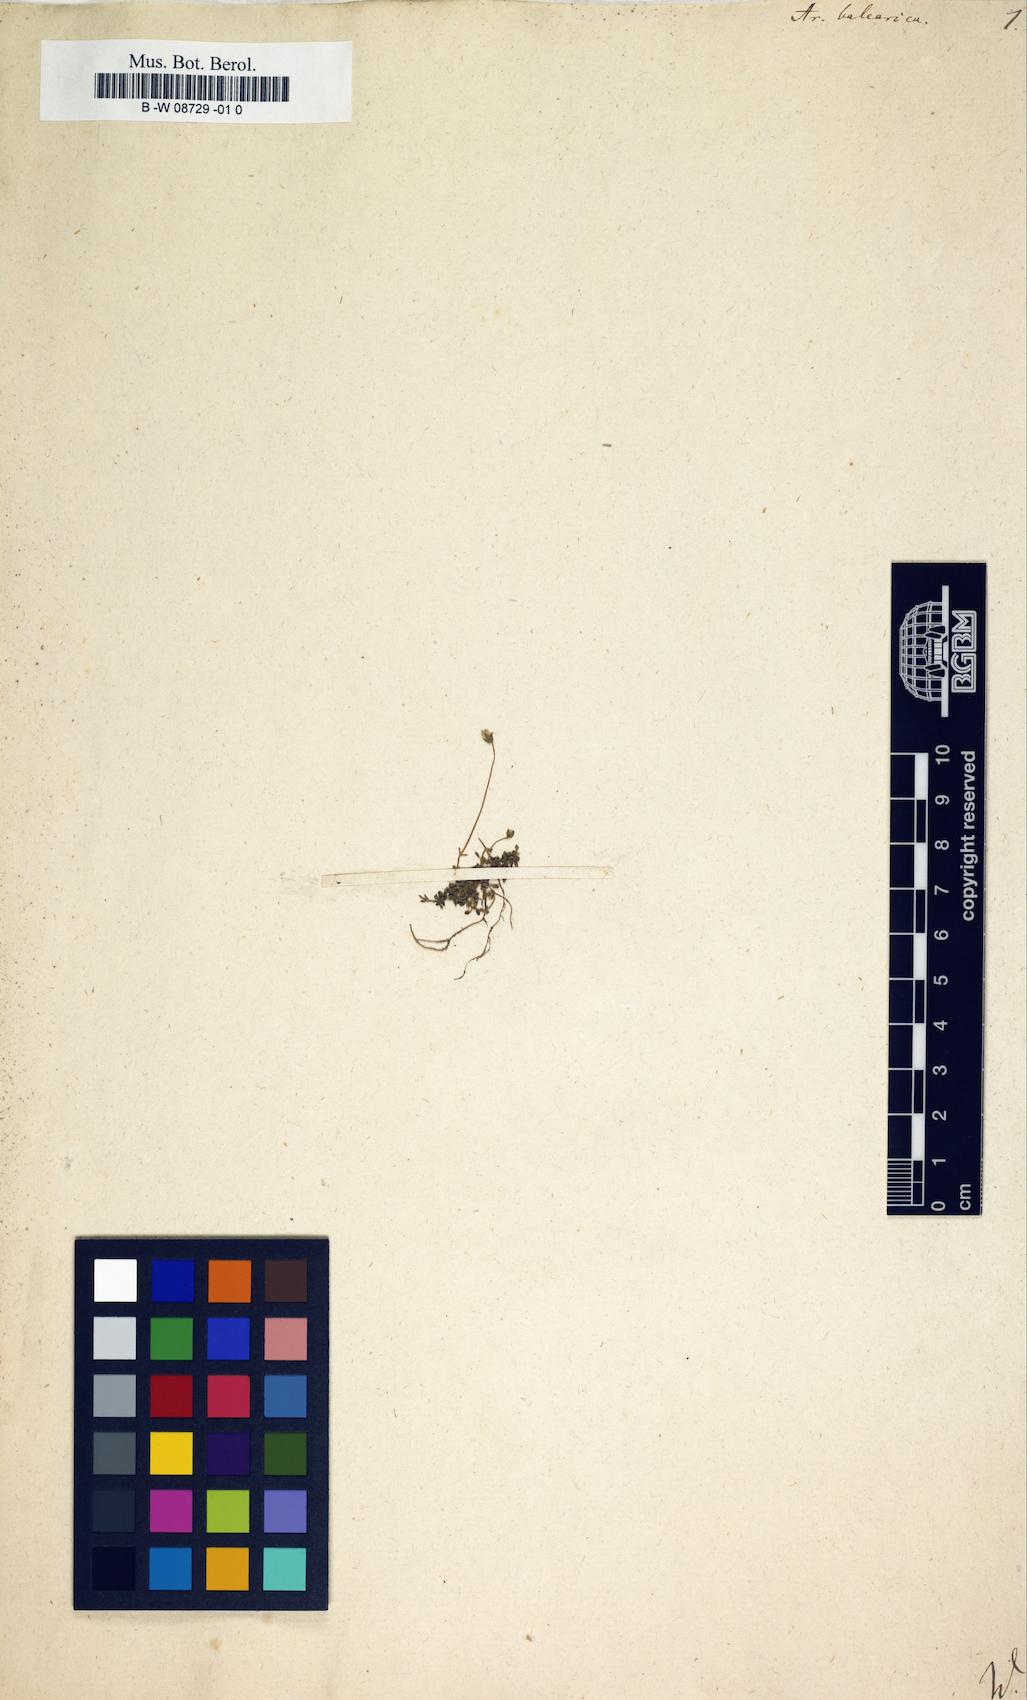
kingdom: Plantae
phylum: Tracheophyta
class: Magnoliopsida
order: Caryophyllales
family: Caryophyllaceae
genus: Arenaria
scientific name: Arenaria balearica
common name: Mossy sandwort
